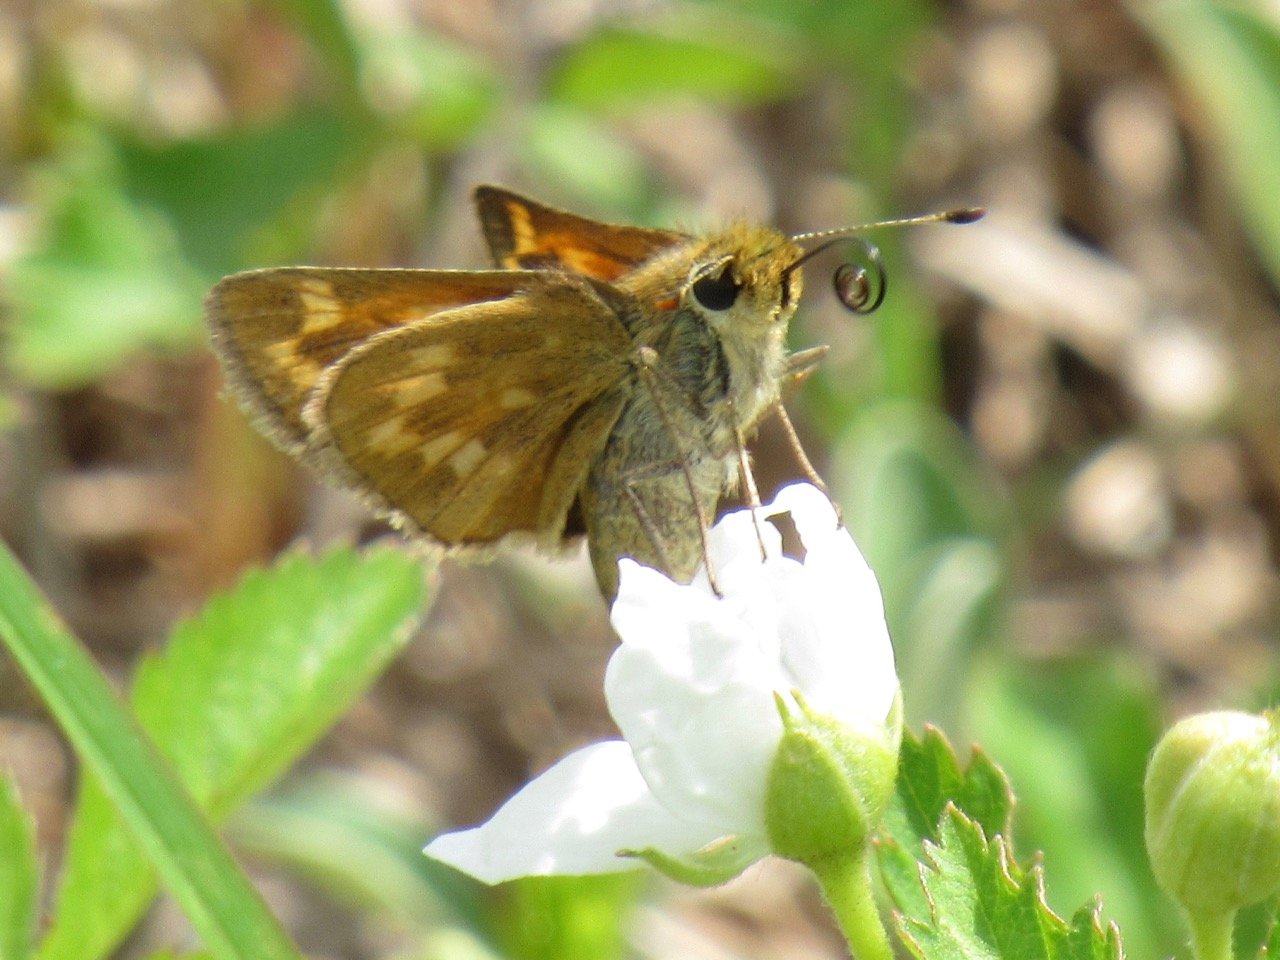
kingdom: Animalia
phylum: Arthropoda
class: Insecta
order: Lepidoptera
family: Hesperiidae
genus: Polites
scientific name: Polites
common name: Long Dash Skipper
